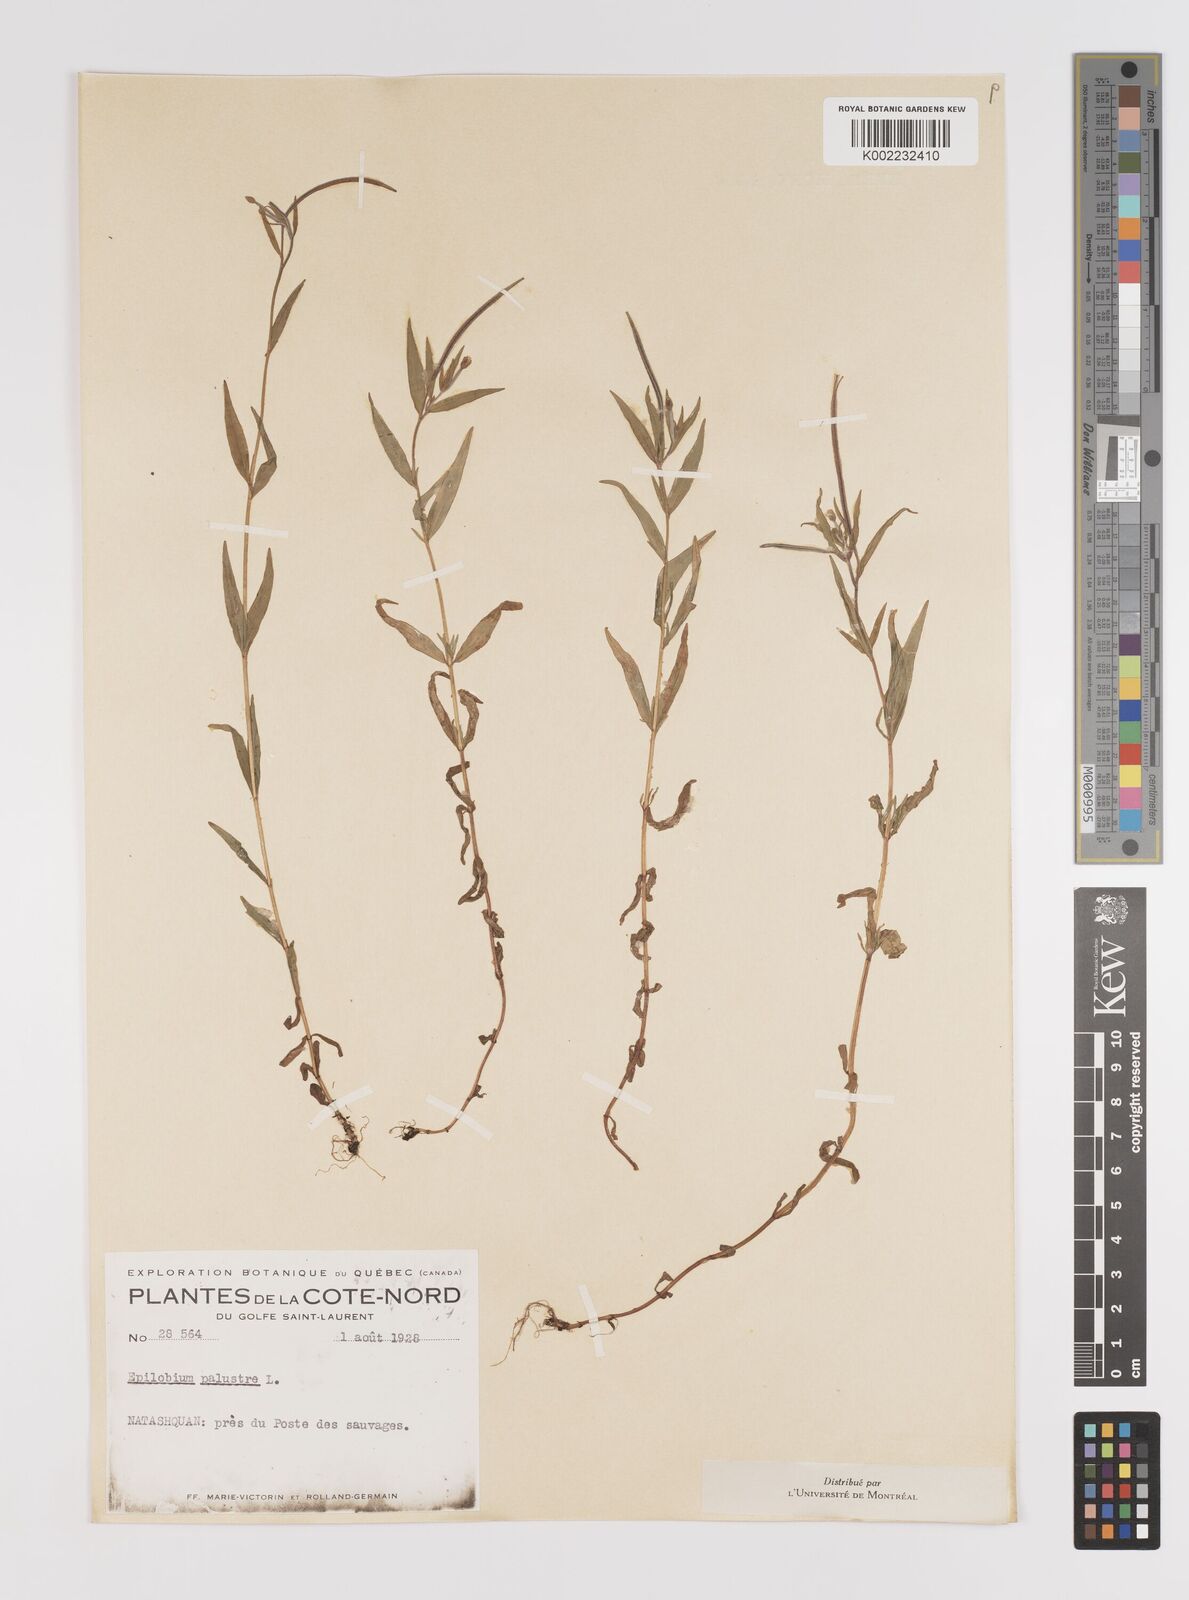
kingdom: Plantae
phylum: Tracheophyta
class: Magnoliopsida
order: Myrtales
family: Onagraceae
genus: Epilobium
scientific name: Epilobium palustre
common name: Marsh willowherb
